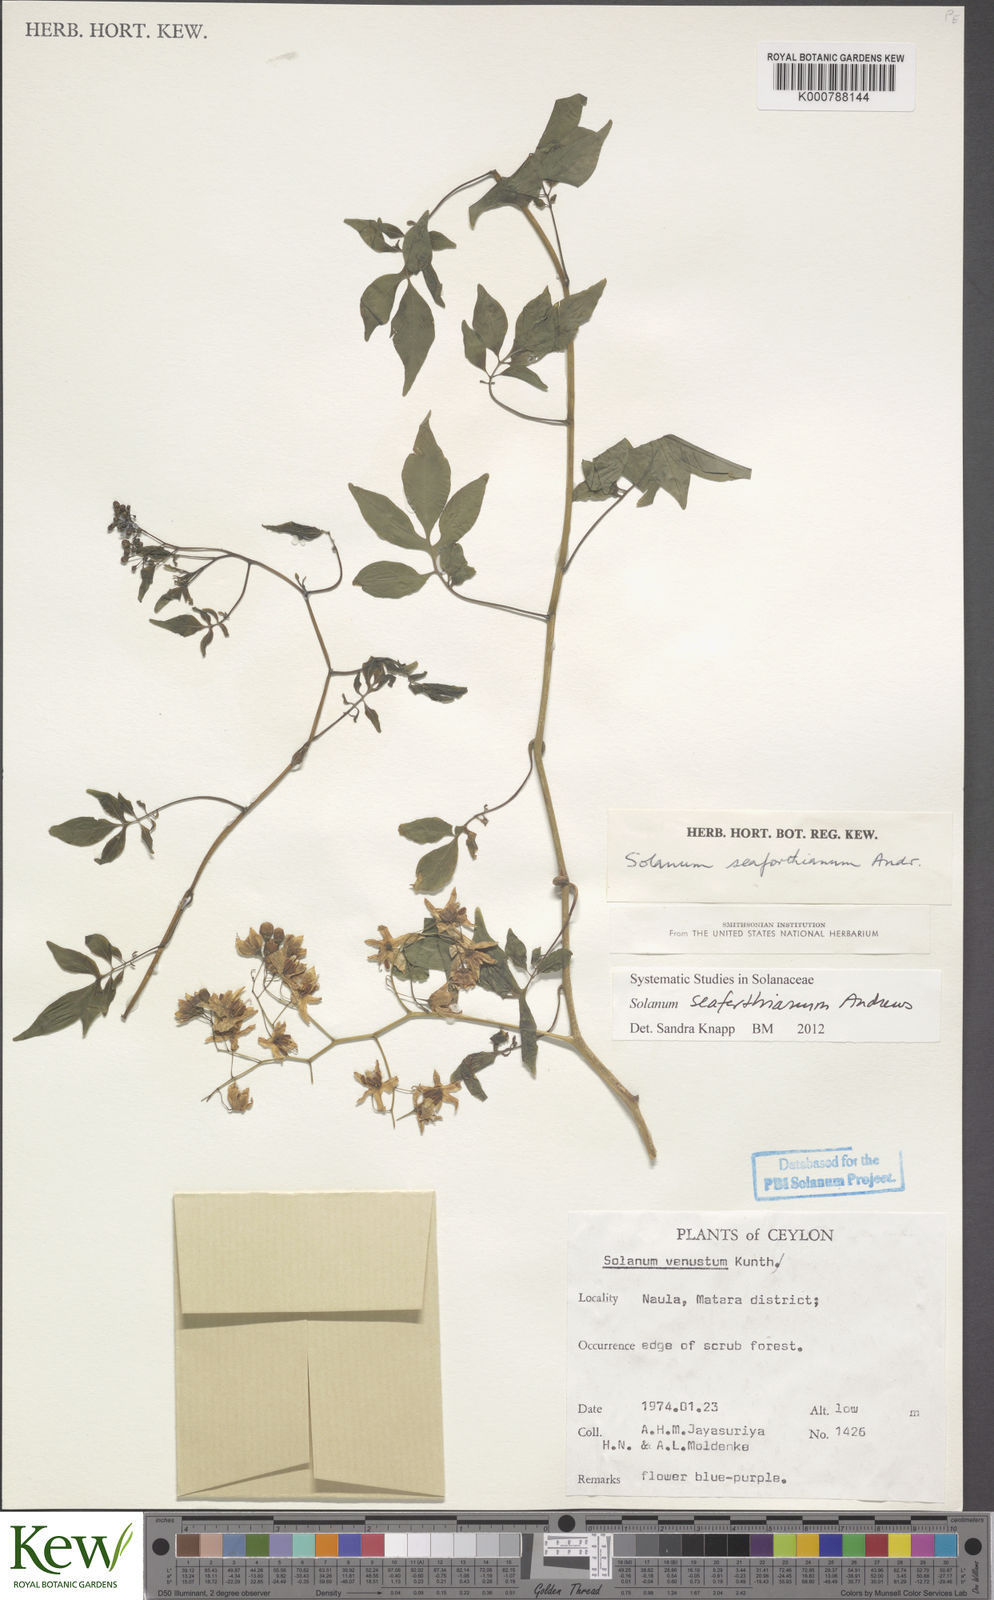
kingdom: Plantae
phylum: Tracheophyta
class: Magnoliopsida
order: Solanales
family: Solanaceae
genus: Solanum
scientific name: Solanum seaforthianum
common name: Brazilian nightshade
